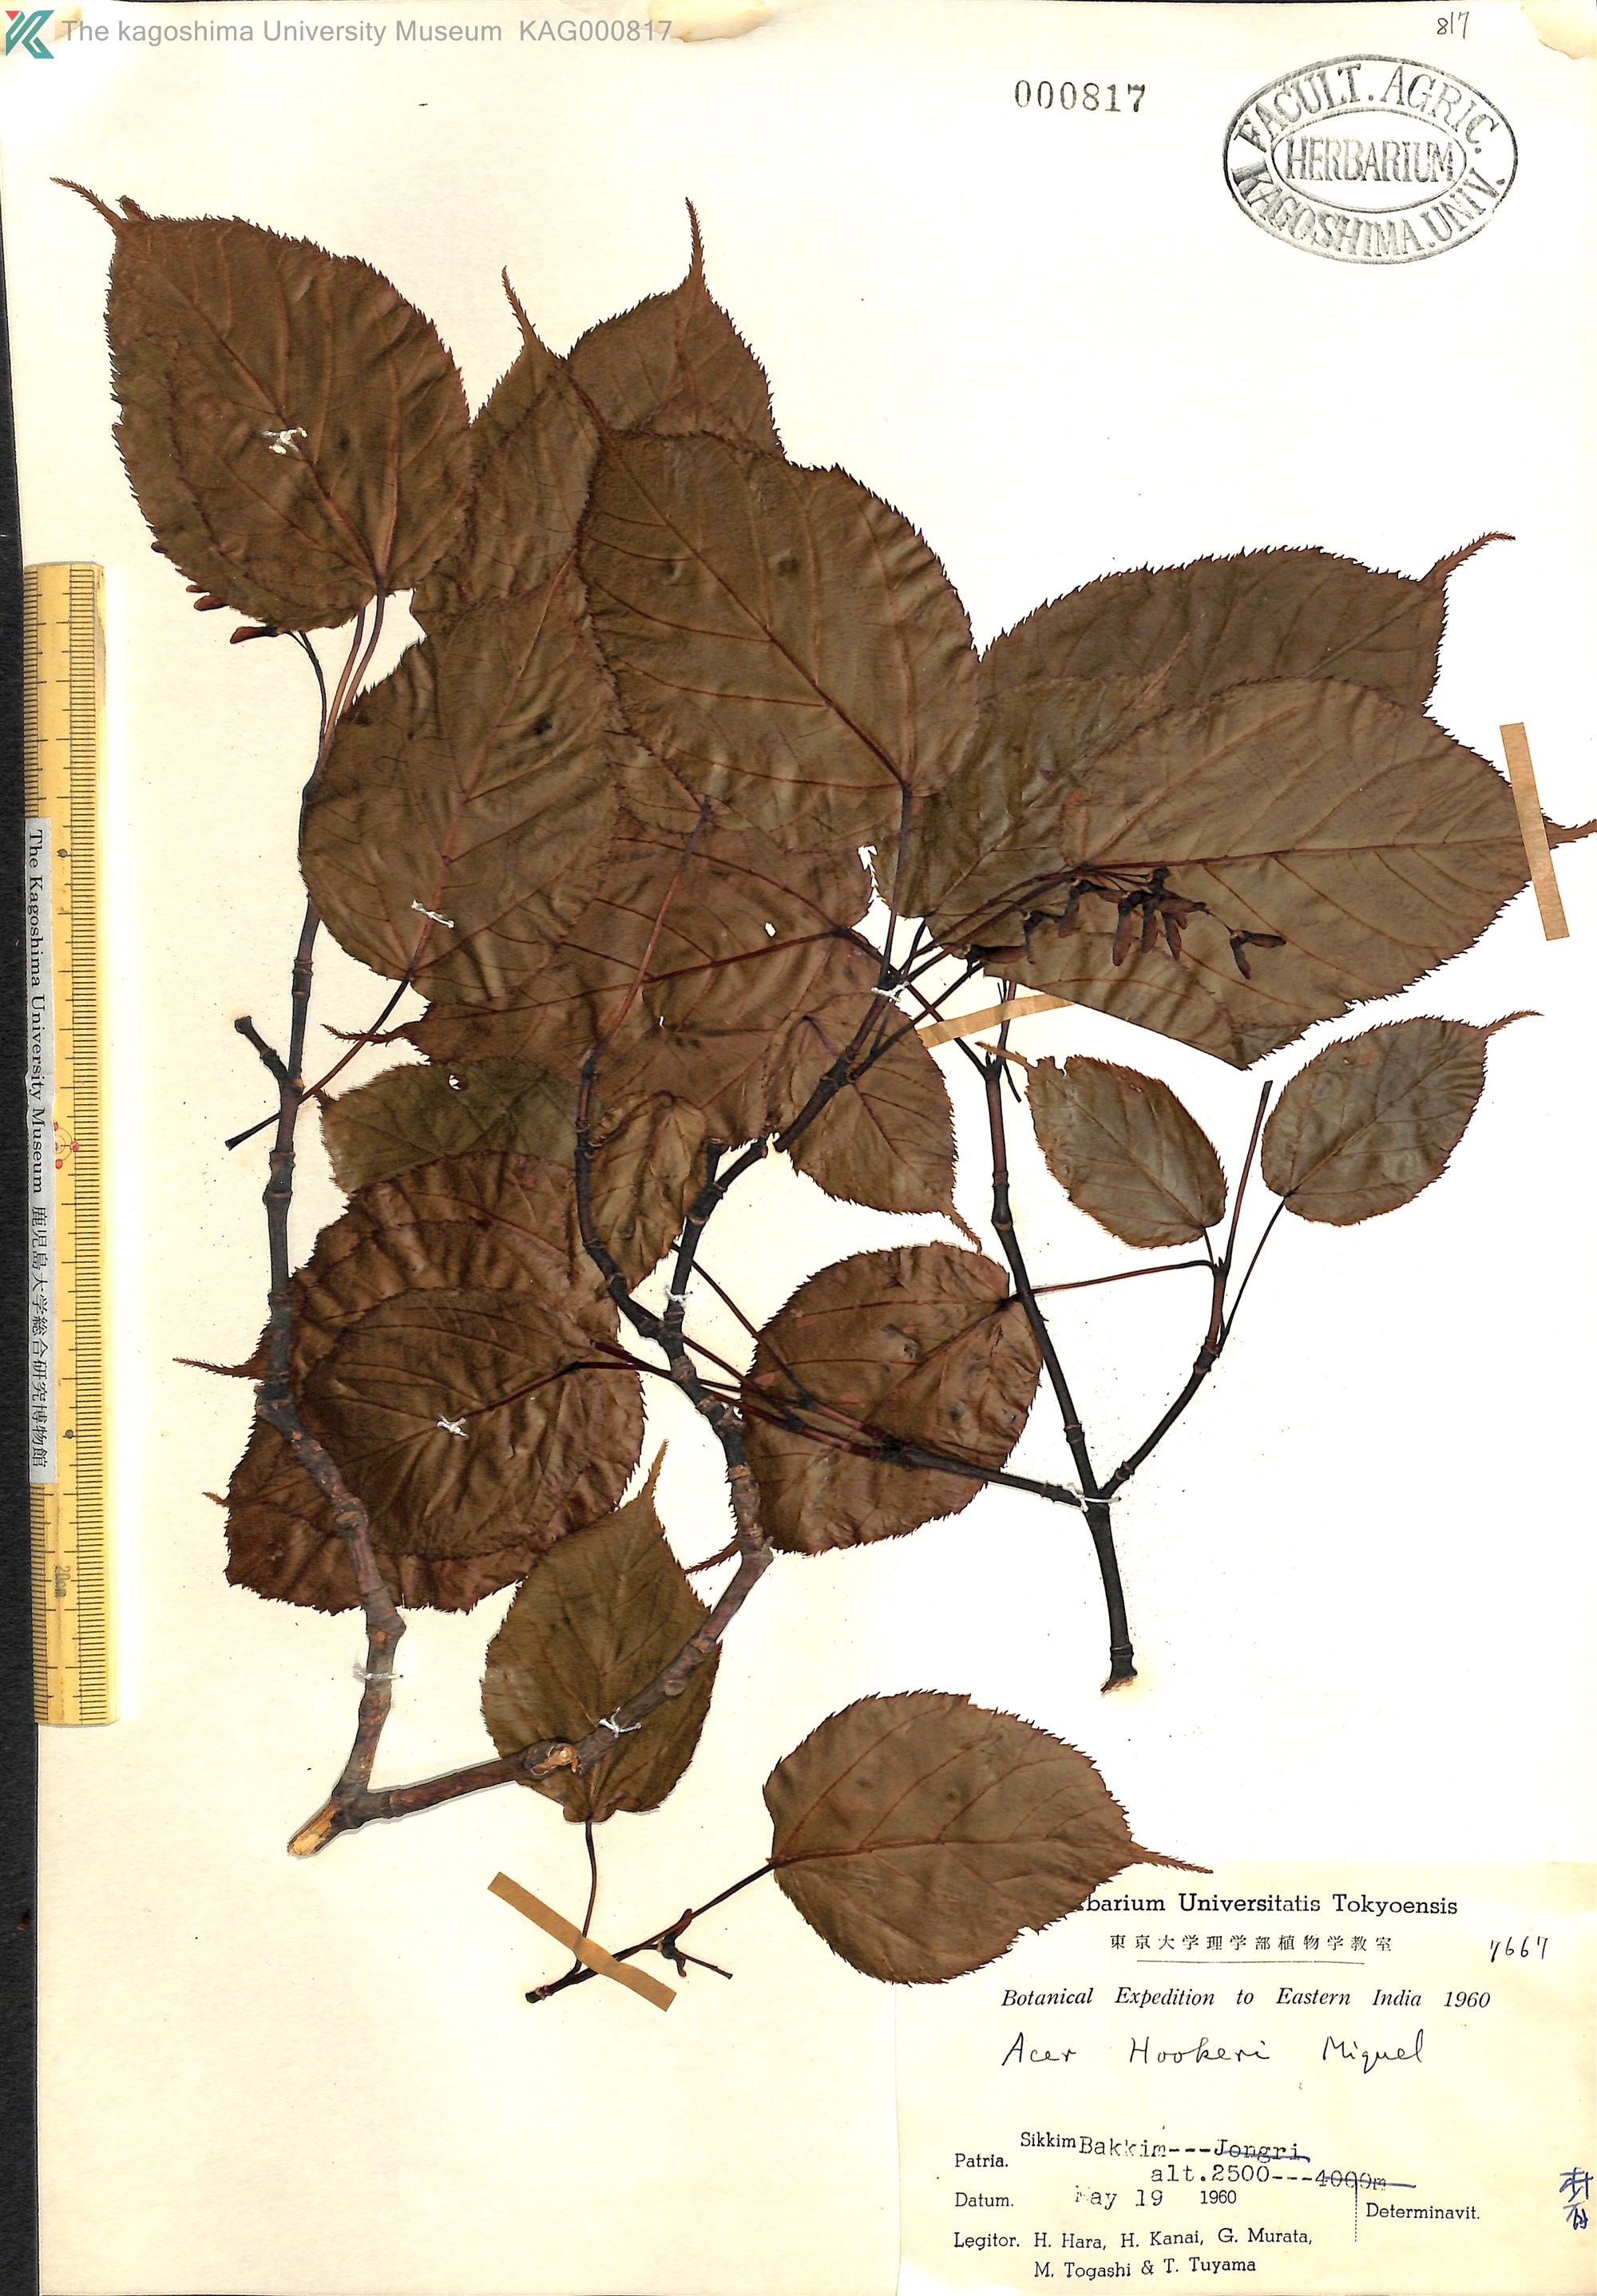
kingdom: Plantae
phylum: Tracheophyta
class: Magnoliopsida
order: Sapindales
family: Sapindaceae
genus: Acer
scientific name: Acer sikkimense
